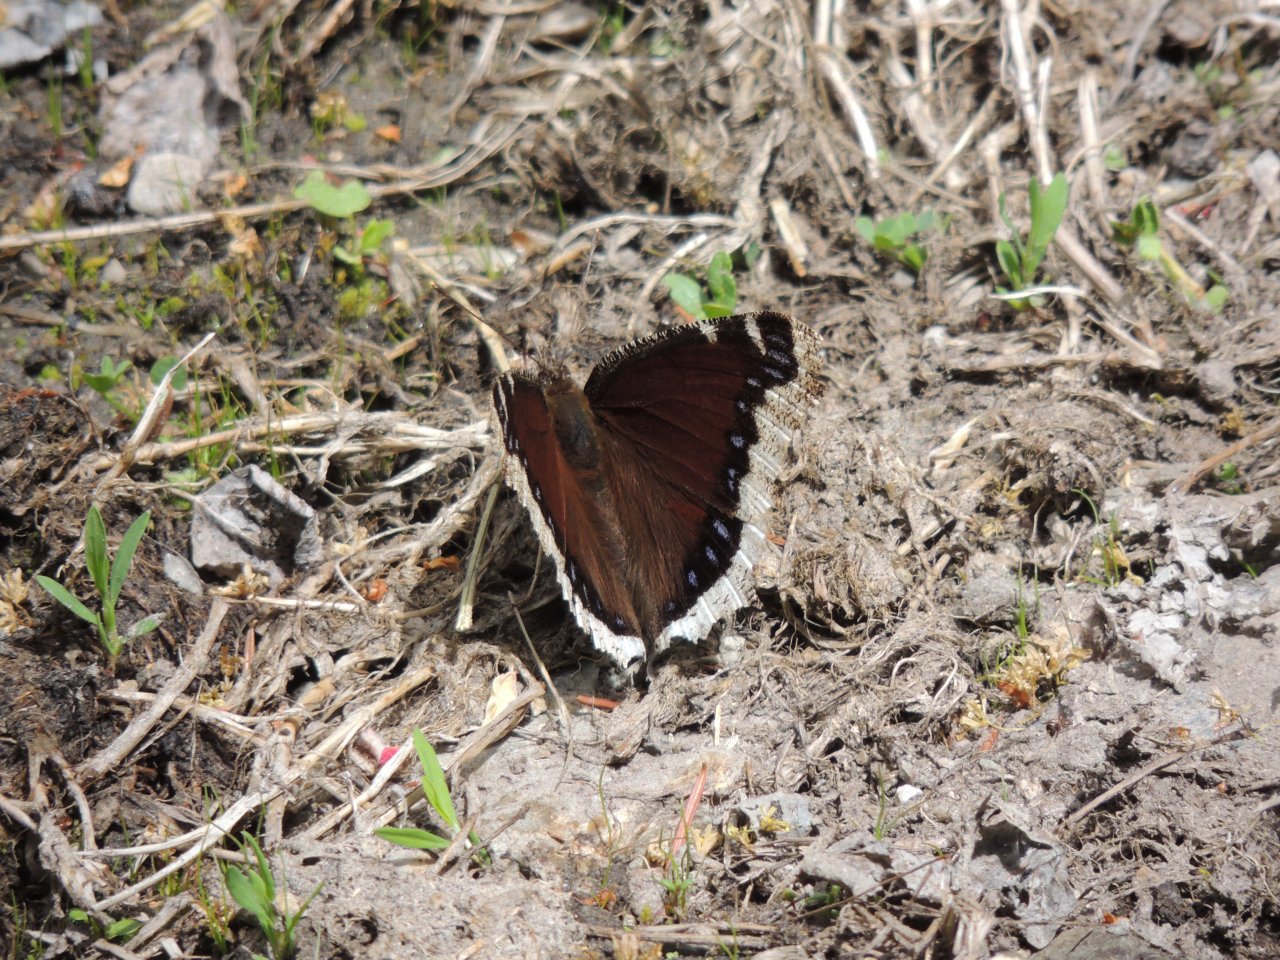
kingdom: Animalia
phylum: Arthropoda
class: Insecta
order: Lepidoptera
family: Nymphalidae
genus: Nymphalis
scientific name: Nymphalis antiopa
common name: Mourning Cloak
